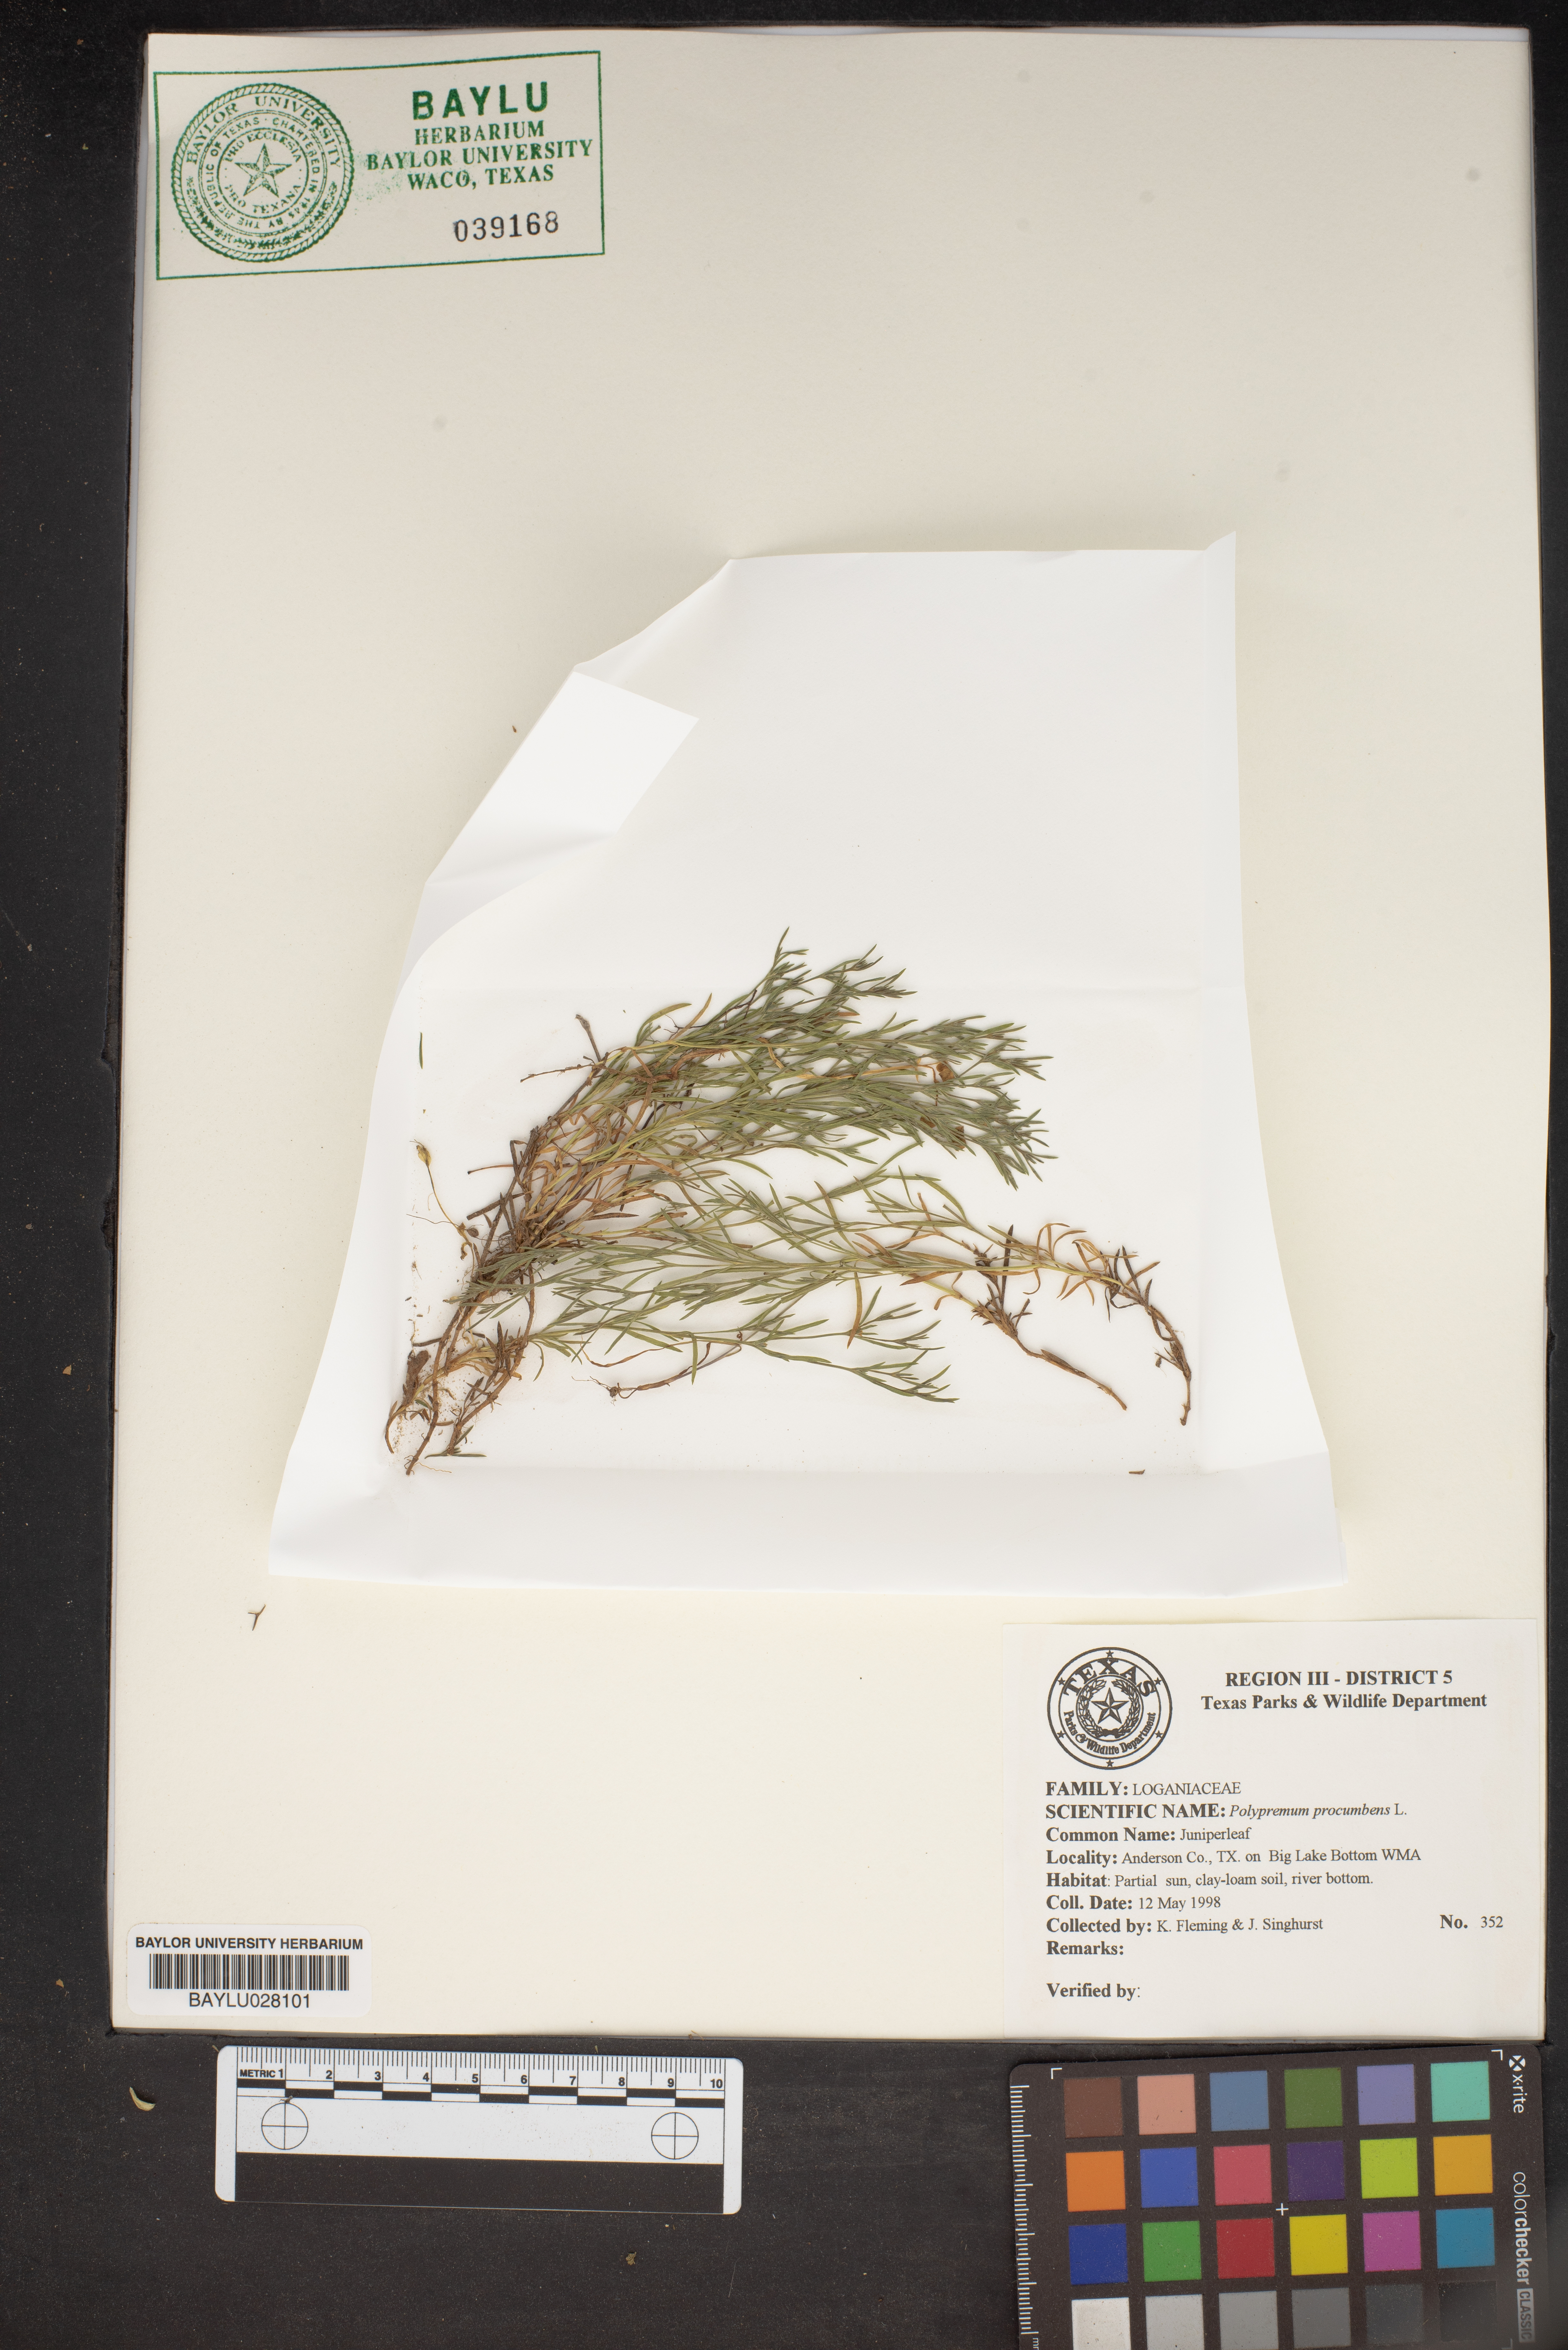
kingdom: Plantae
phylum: Tracheophyta
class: Magnoliopsida
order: Lamiales
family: Tetrachondraceae
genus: Polypremum
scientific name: Polypremum procumbens
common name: Juniper-leaf
